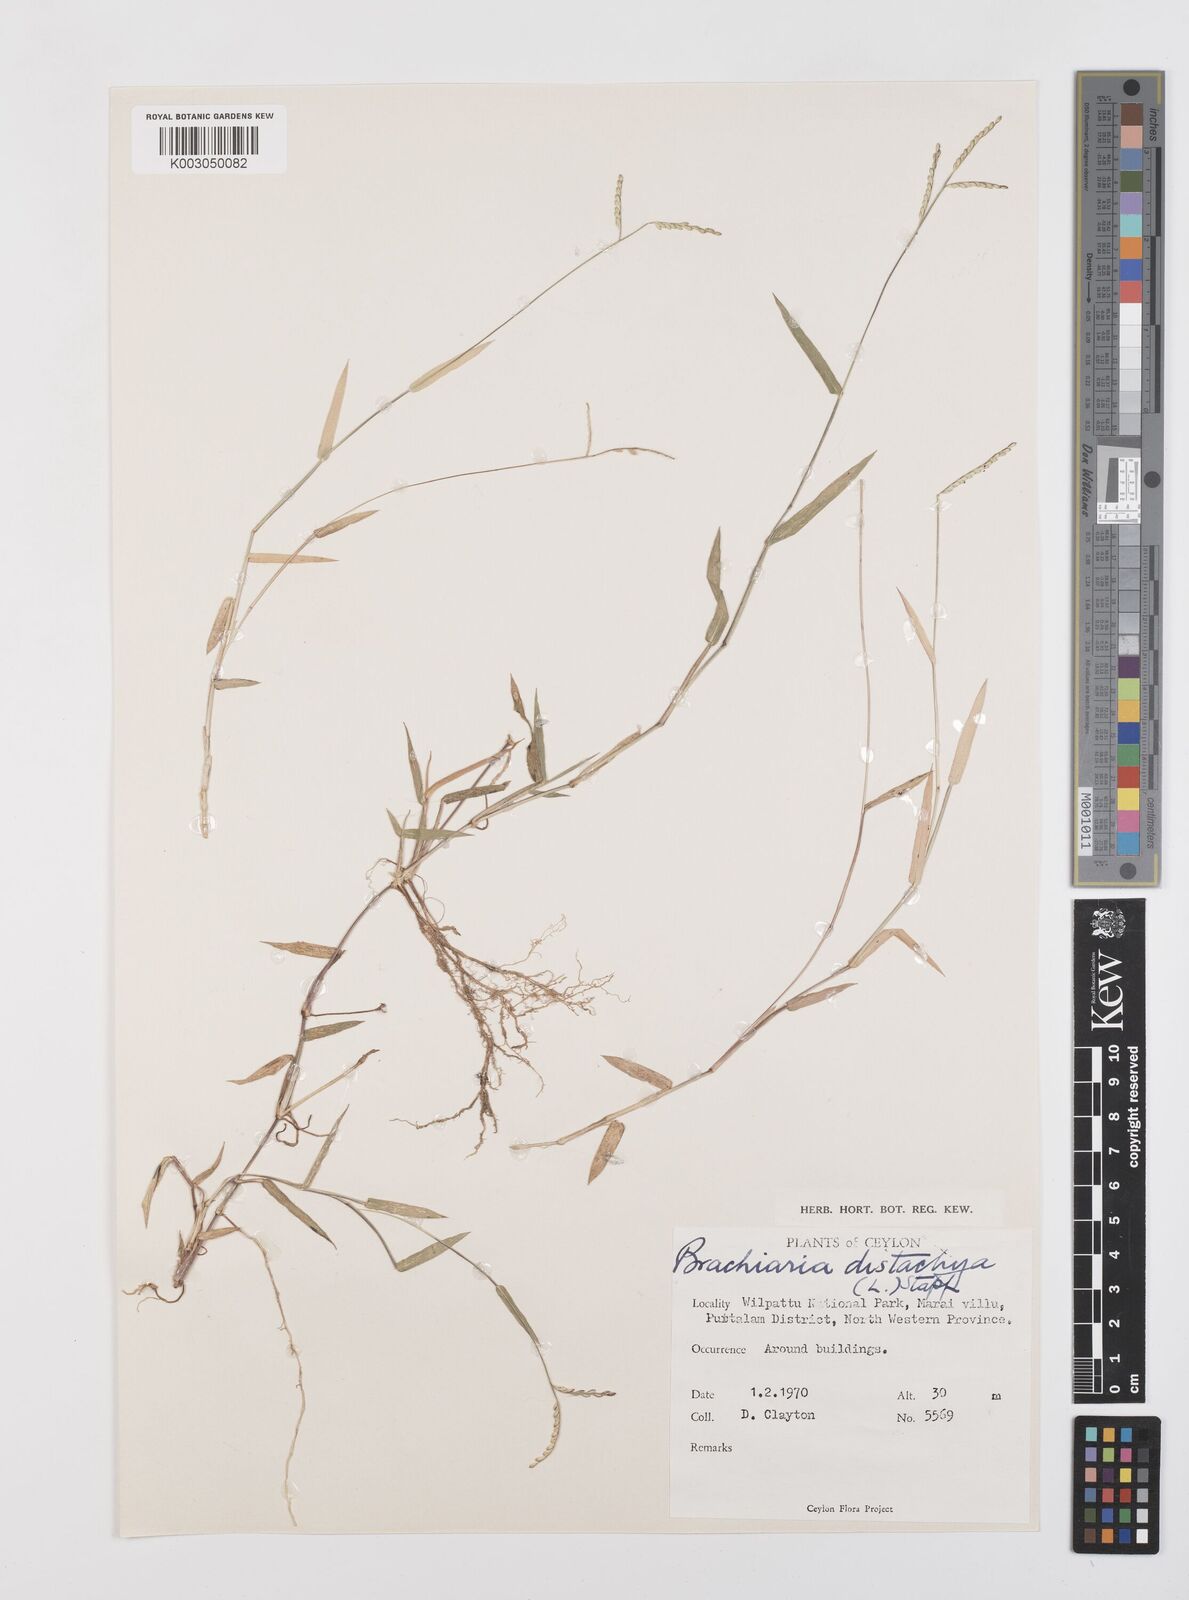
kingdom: Plantae
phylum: Tracheophyta
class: Liliopsida
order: Poales
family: Poaceae
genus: Urochloa
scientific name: Urochloa distachyos
